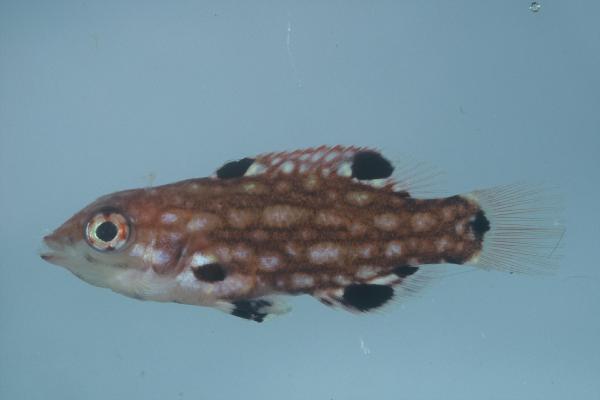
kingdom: Animalia
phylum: Chordata
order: Perciformes
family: Labridae
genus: Bodianus
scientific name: Bodianus diana
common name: Diana's hogfish
